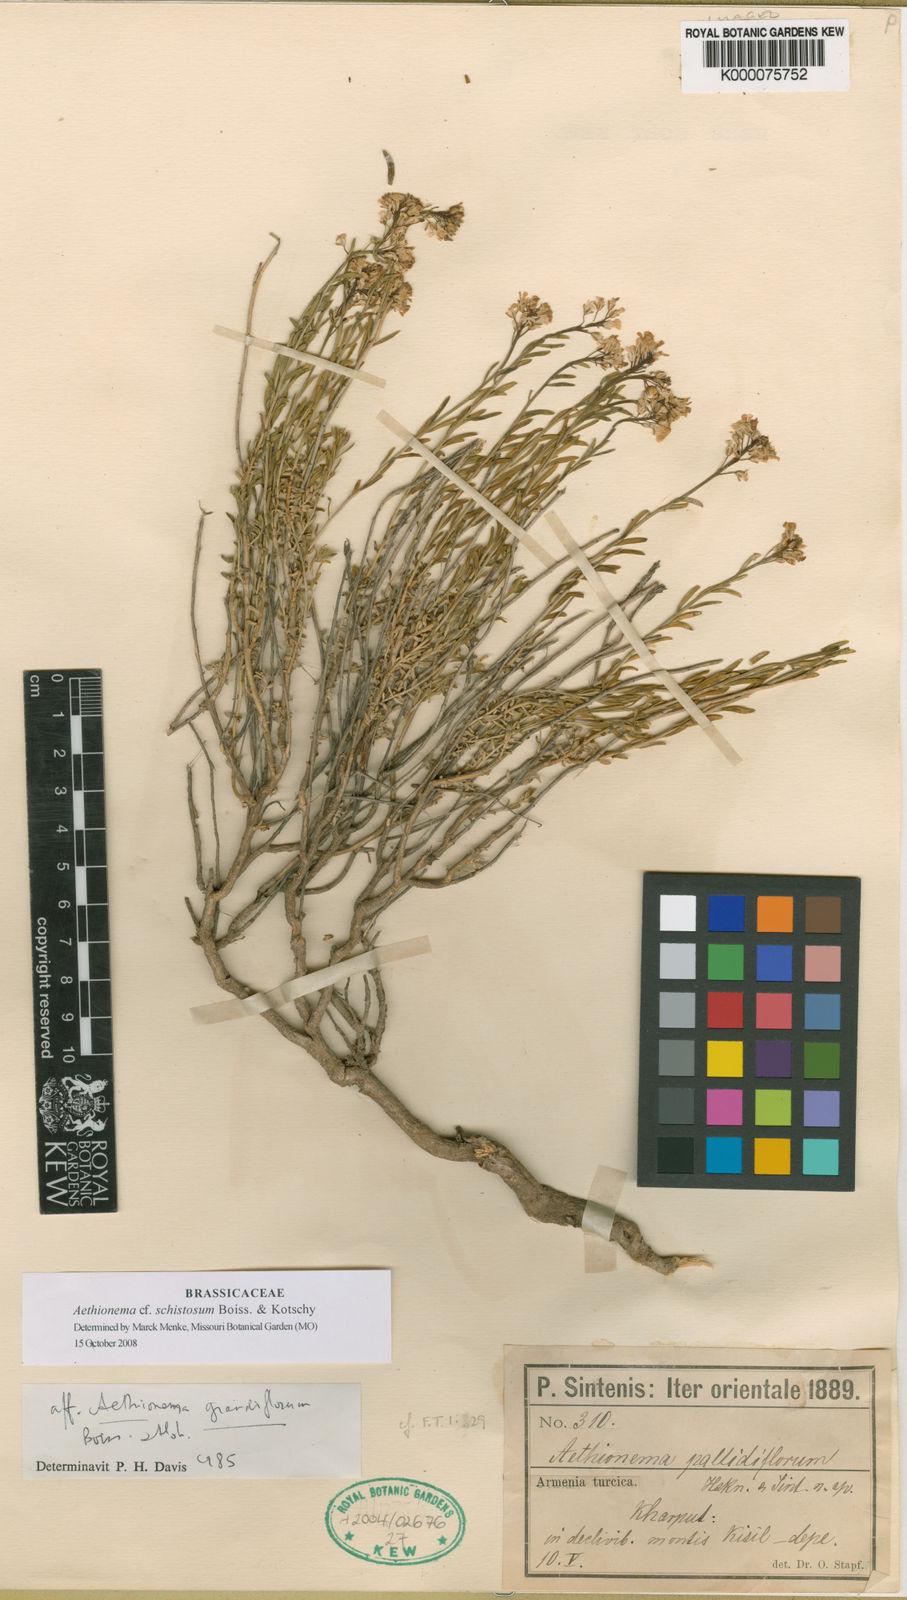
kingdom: Plantae
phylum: Tracheophyta
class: Magnoliopsida
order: Brassicales
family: Brassicaceae
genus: Aethionema
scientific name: Aethionema grandiflorum
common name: Persian stonecress
